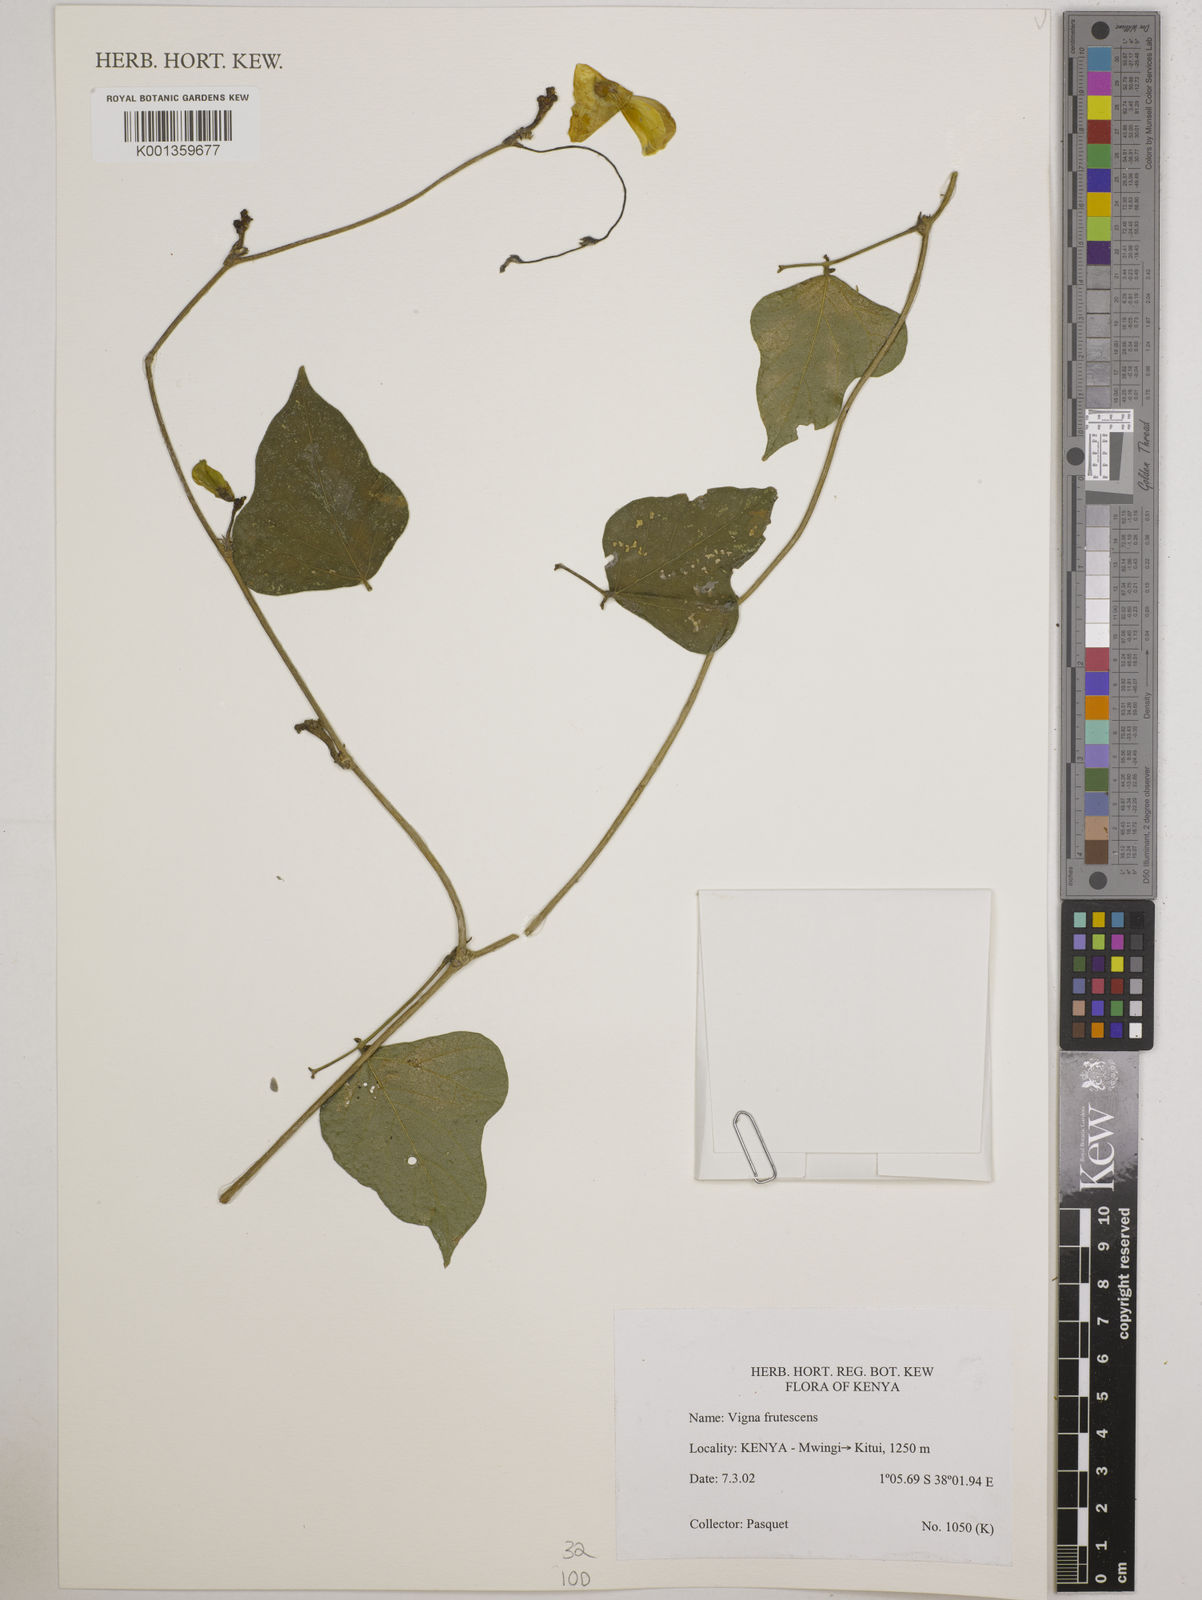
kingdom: Plantae
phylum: Tracheophyta
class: Magnoliopsida
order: Fabales
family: Fabaceae
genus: Vigna
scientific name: Vigna frutescens
